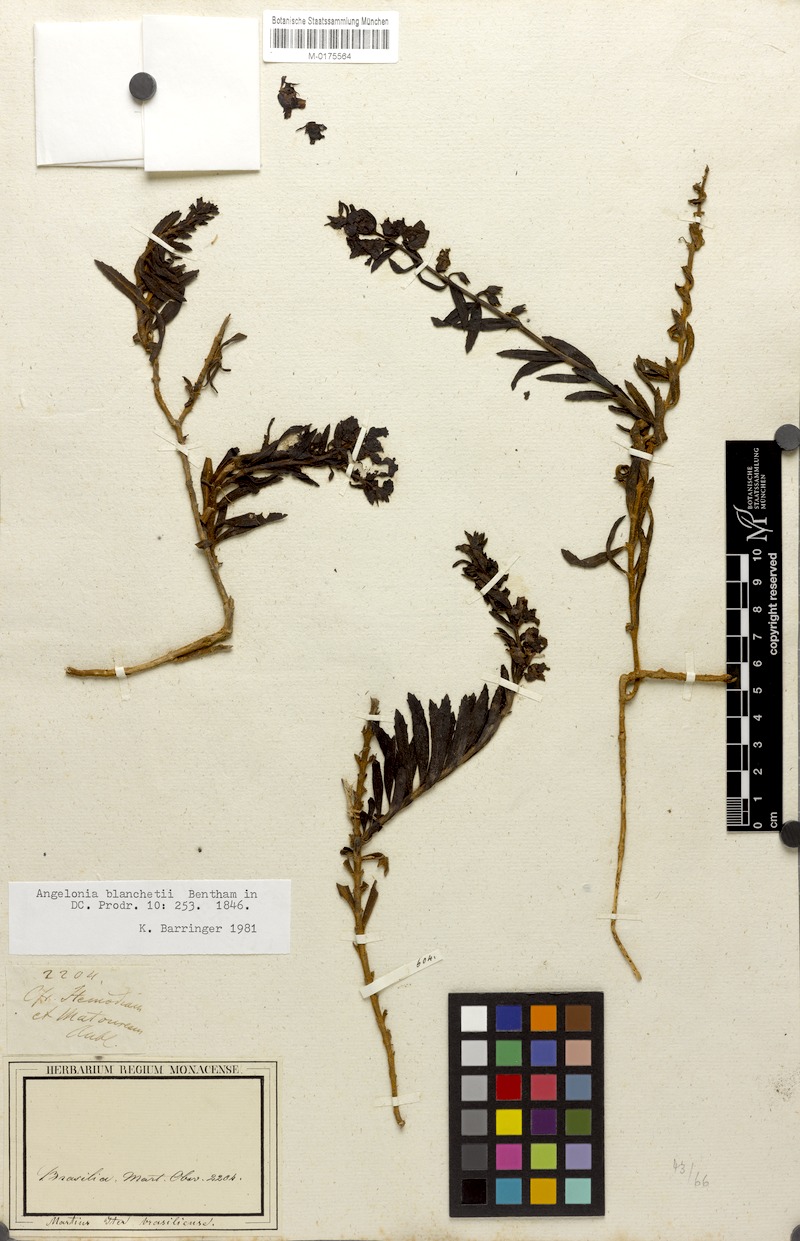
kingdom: Plantae
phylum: Tracheophyta
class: Magnoliopsida
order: Lamiales
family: Plantaginaceae
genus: Angelonia
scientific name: Angelonia blanchetii
